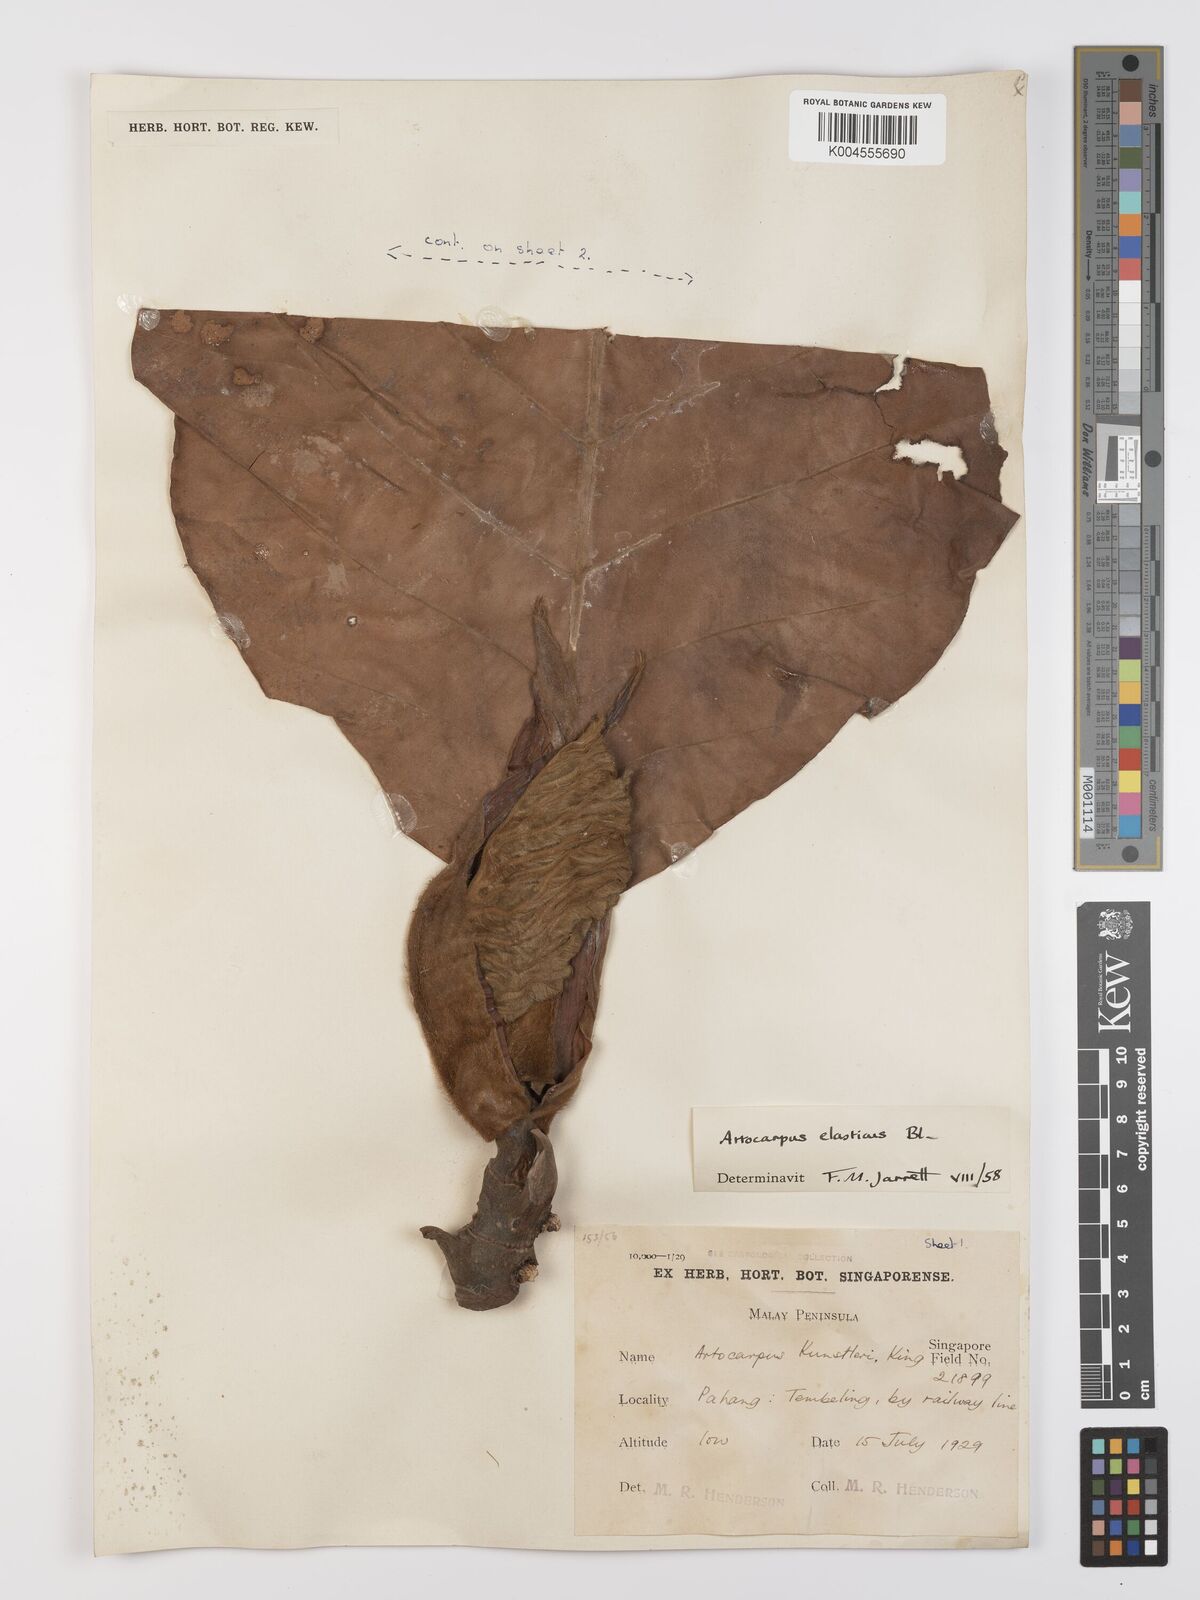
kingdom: Plantae
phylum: Tracheophyta
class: Magnoliopsida
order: Rosales
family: Moraceae
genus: Artocarpus
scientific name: Artocarpus elasticus
